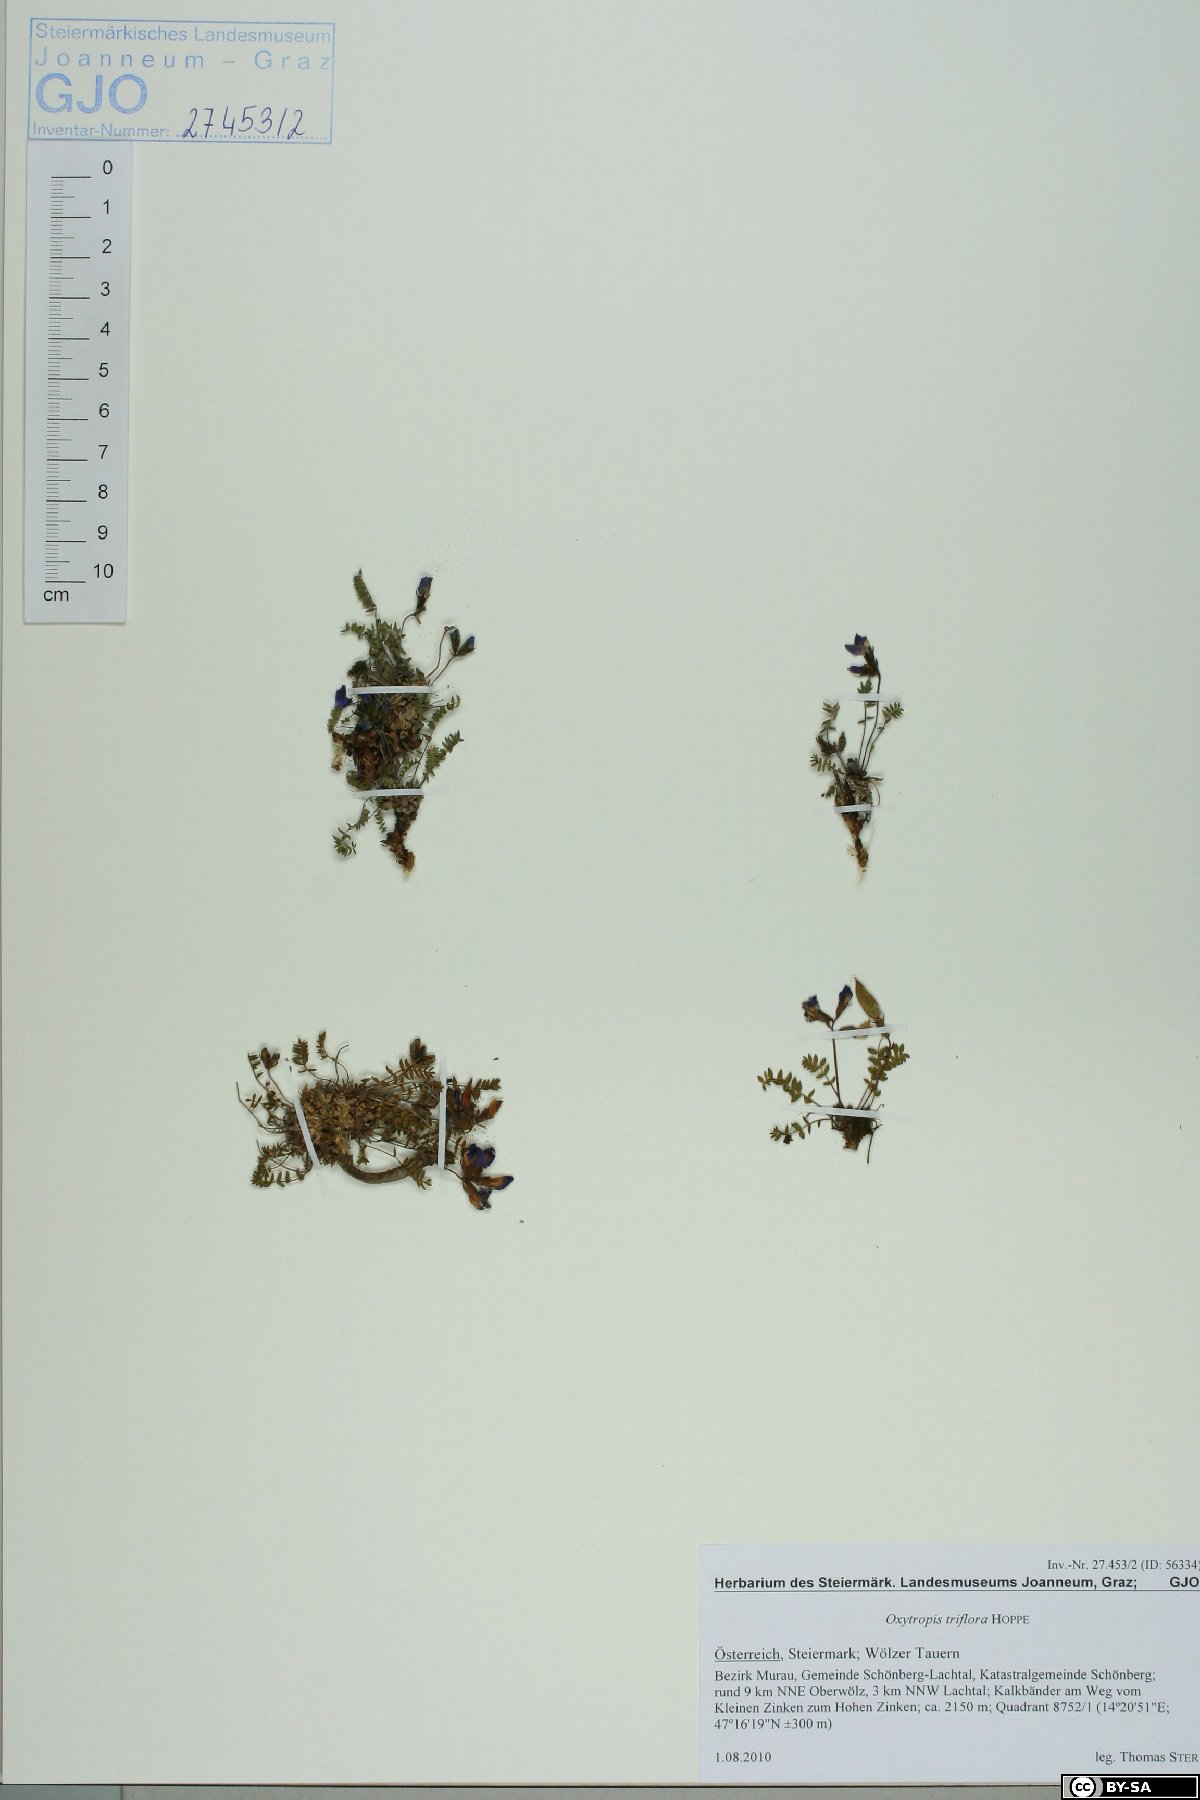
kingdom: Plantae
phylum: Tracheophyta
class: Magnoliopsida
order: Fabales
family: Fabaceae
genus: Oxytropis
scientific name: Oxytropis triflora
